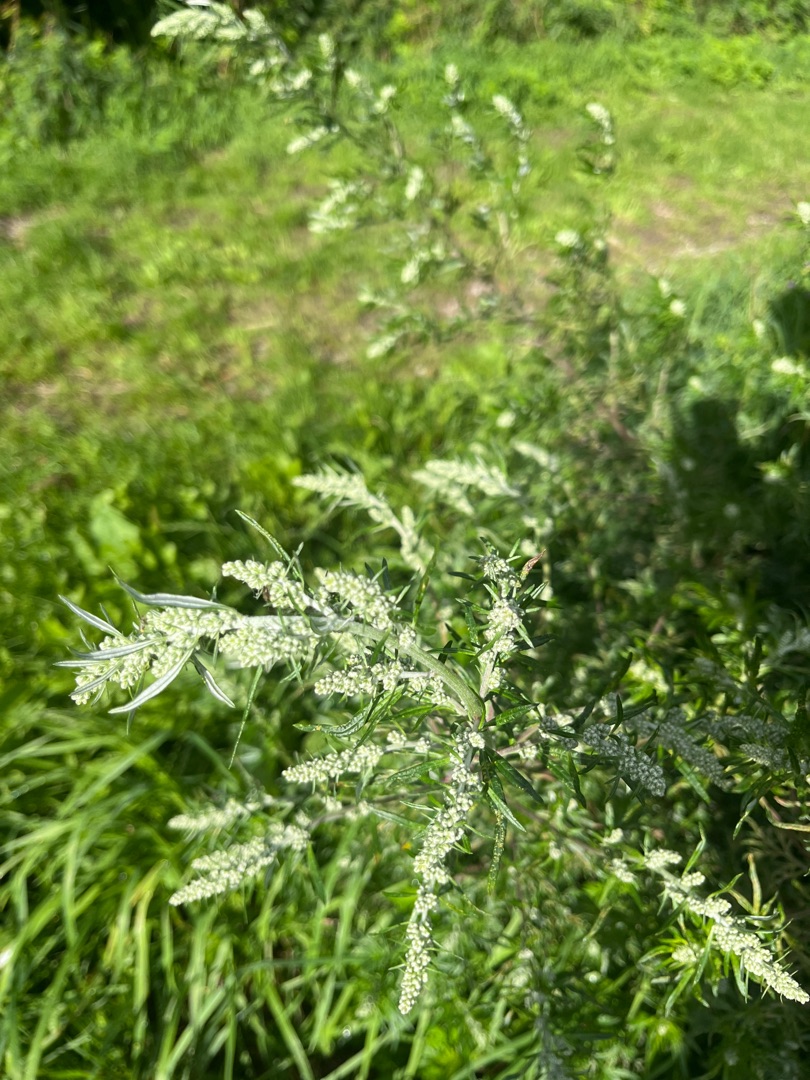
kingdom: Plantae
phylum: Tracheophyta
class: Magnoliopsida
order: Asterales
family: Asteraceae
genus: Artemisia
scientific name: Artemisia vulgaris
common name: Grå-bynke
